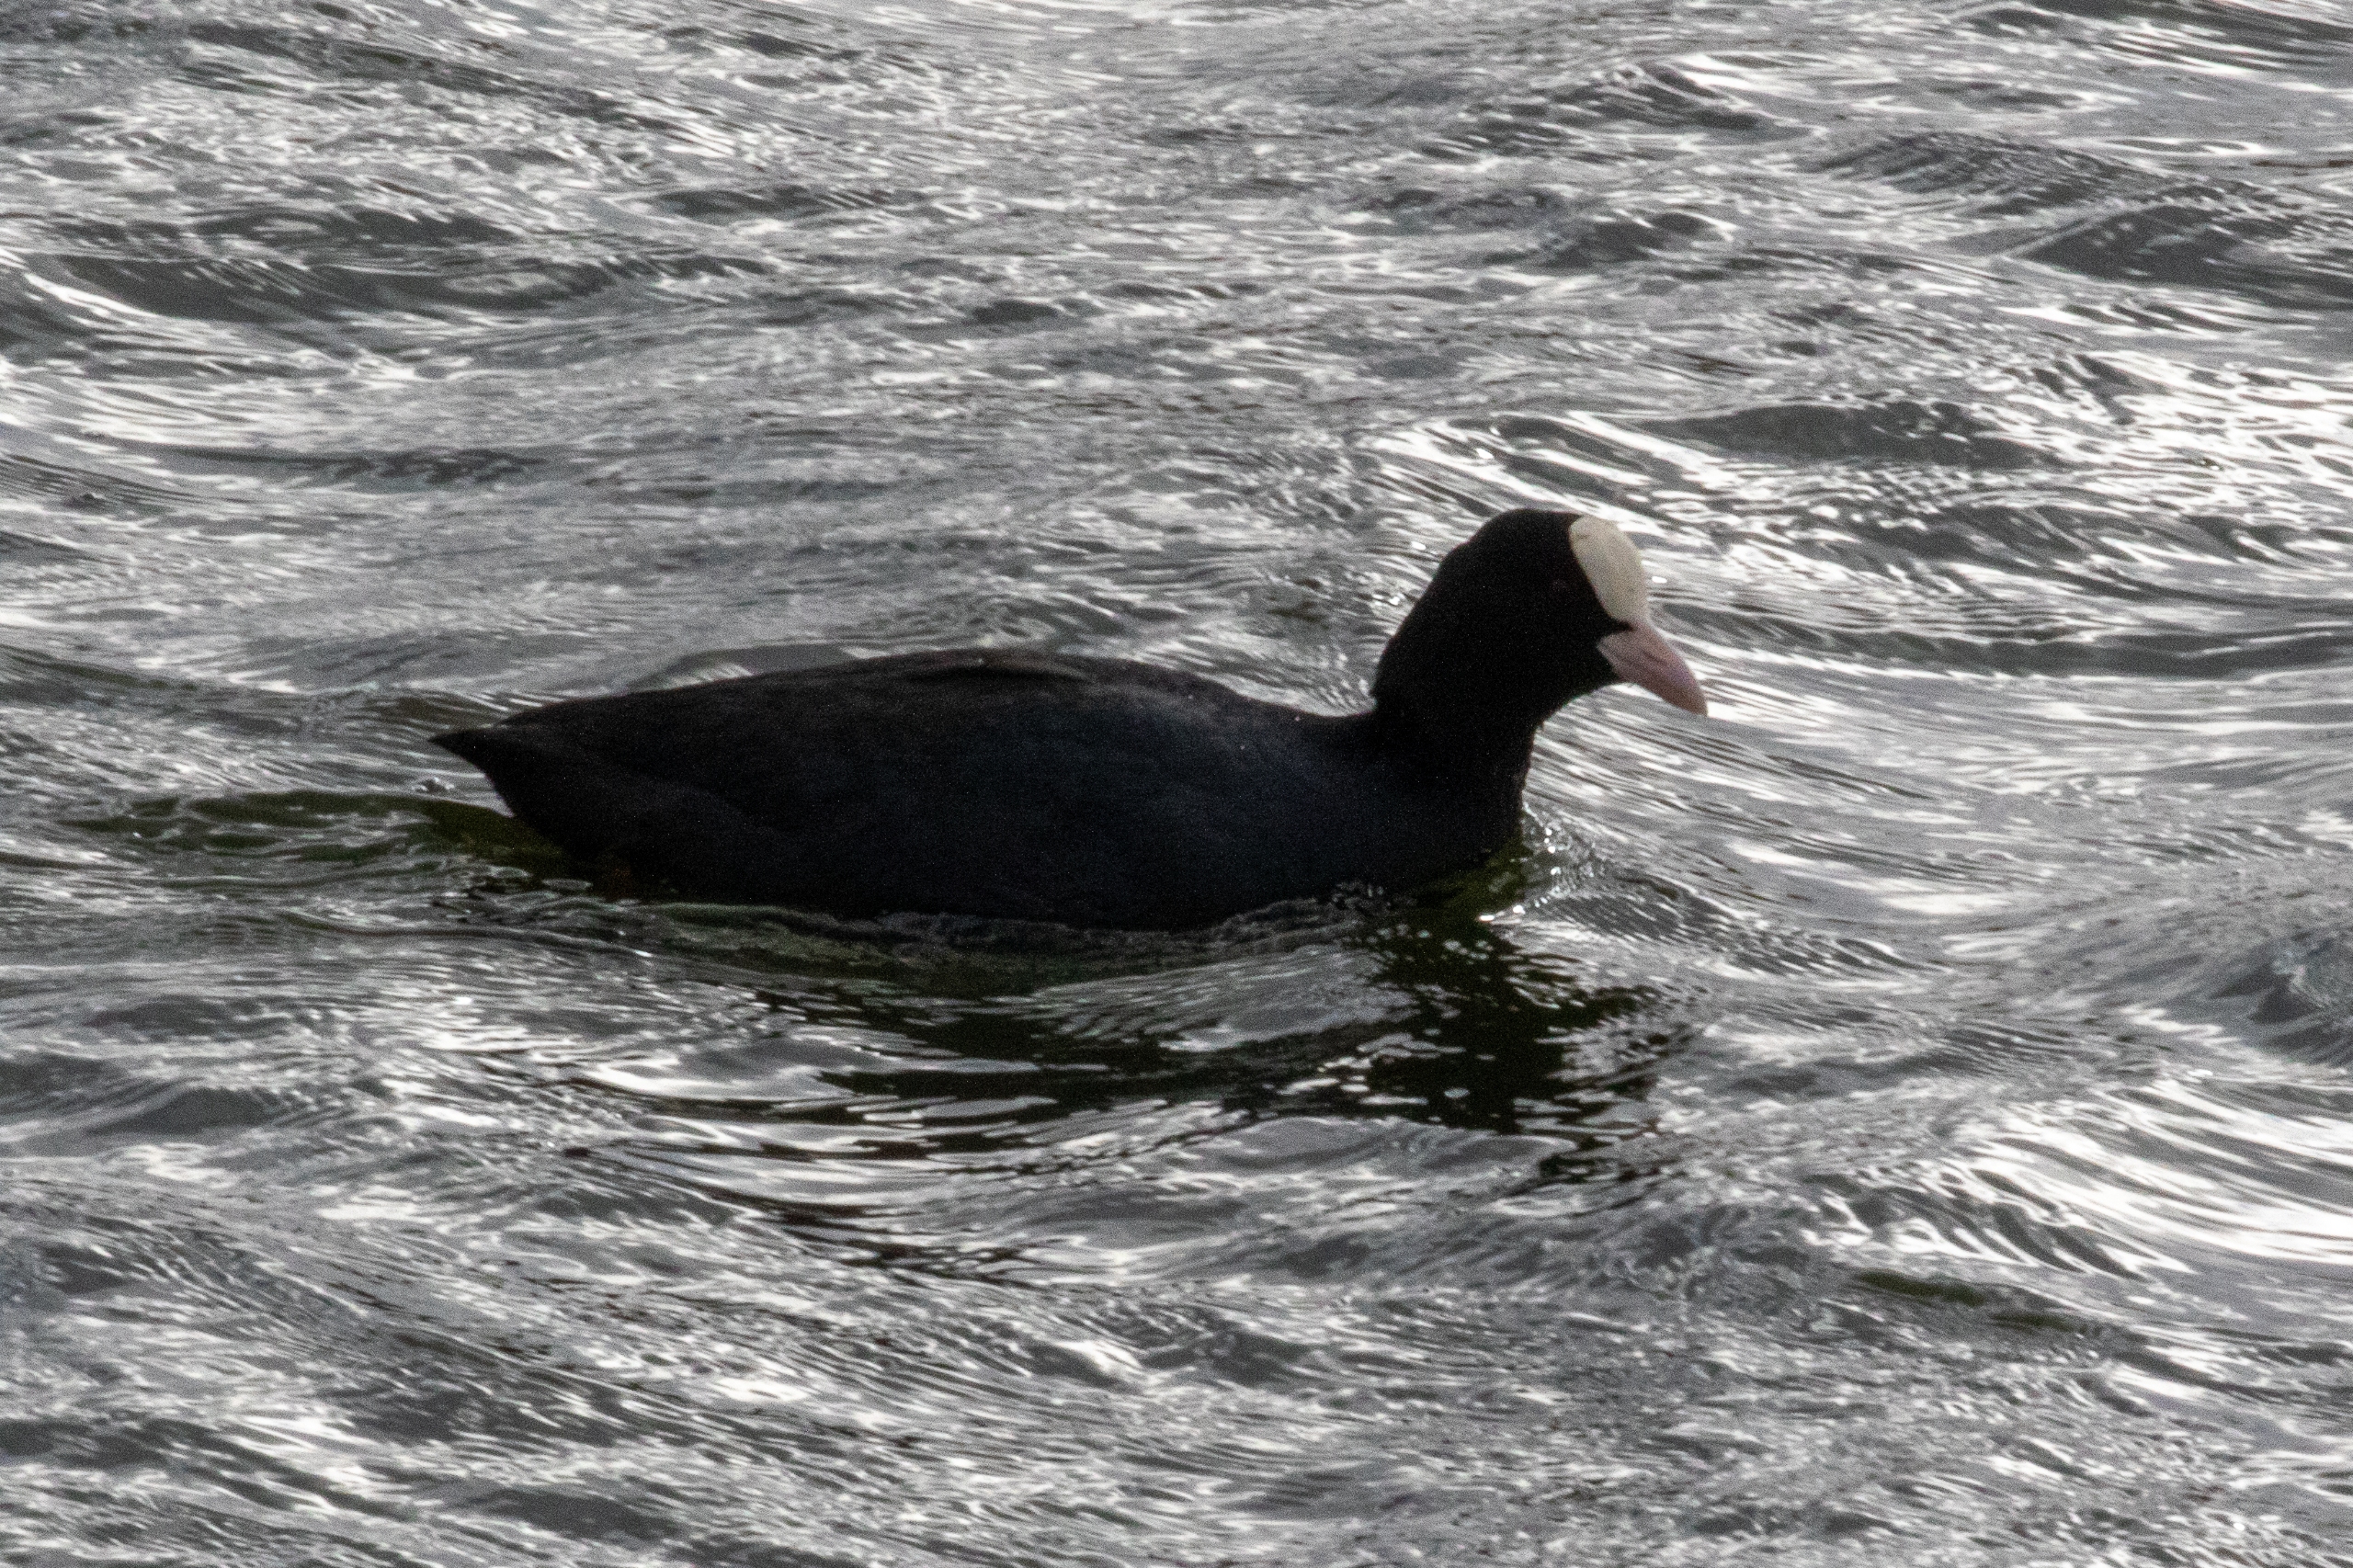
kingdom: Animalia
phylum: Chordata
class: Aves
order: Gruiformes
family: Rallidae
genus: Fulica
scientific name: Fulica atra
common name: Blishøne
